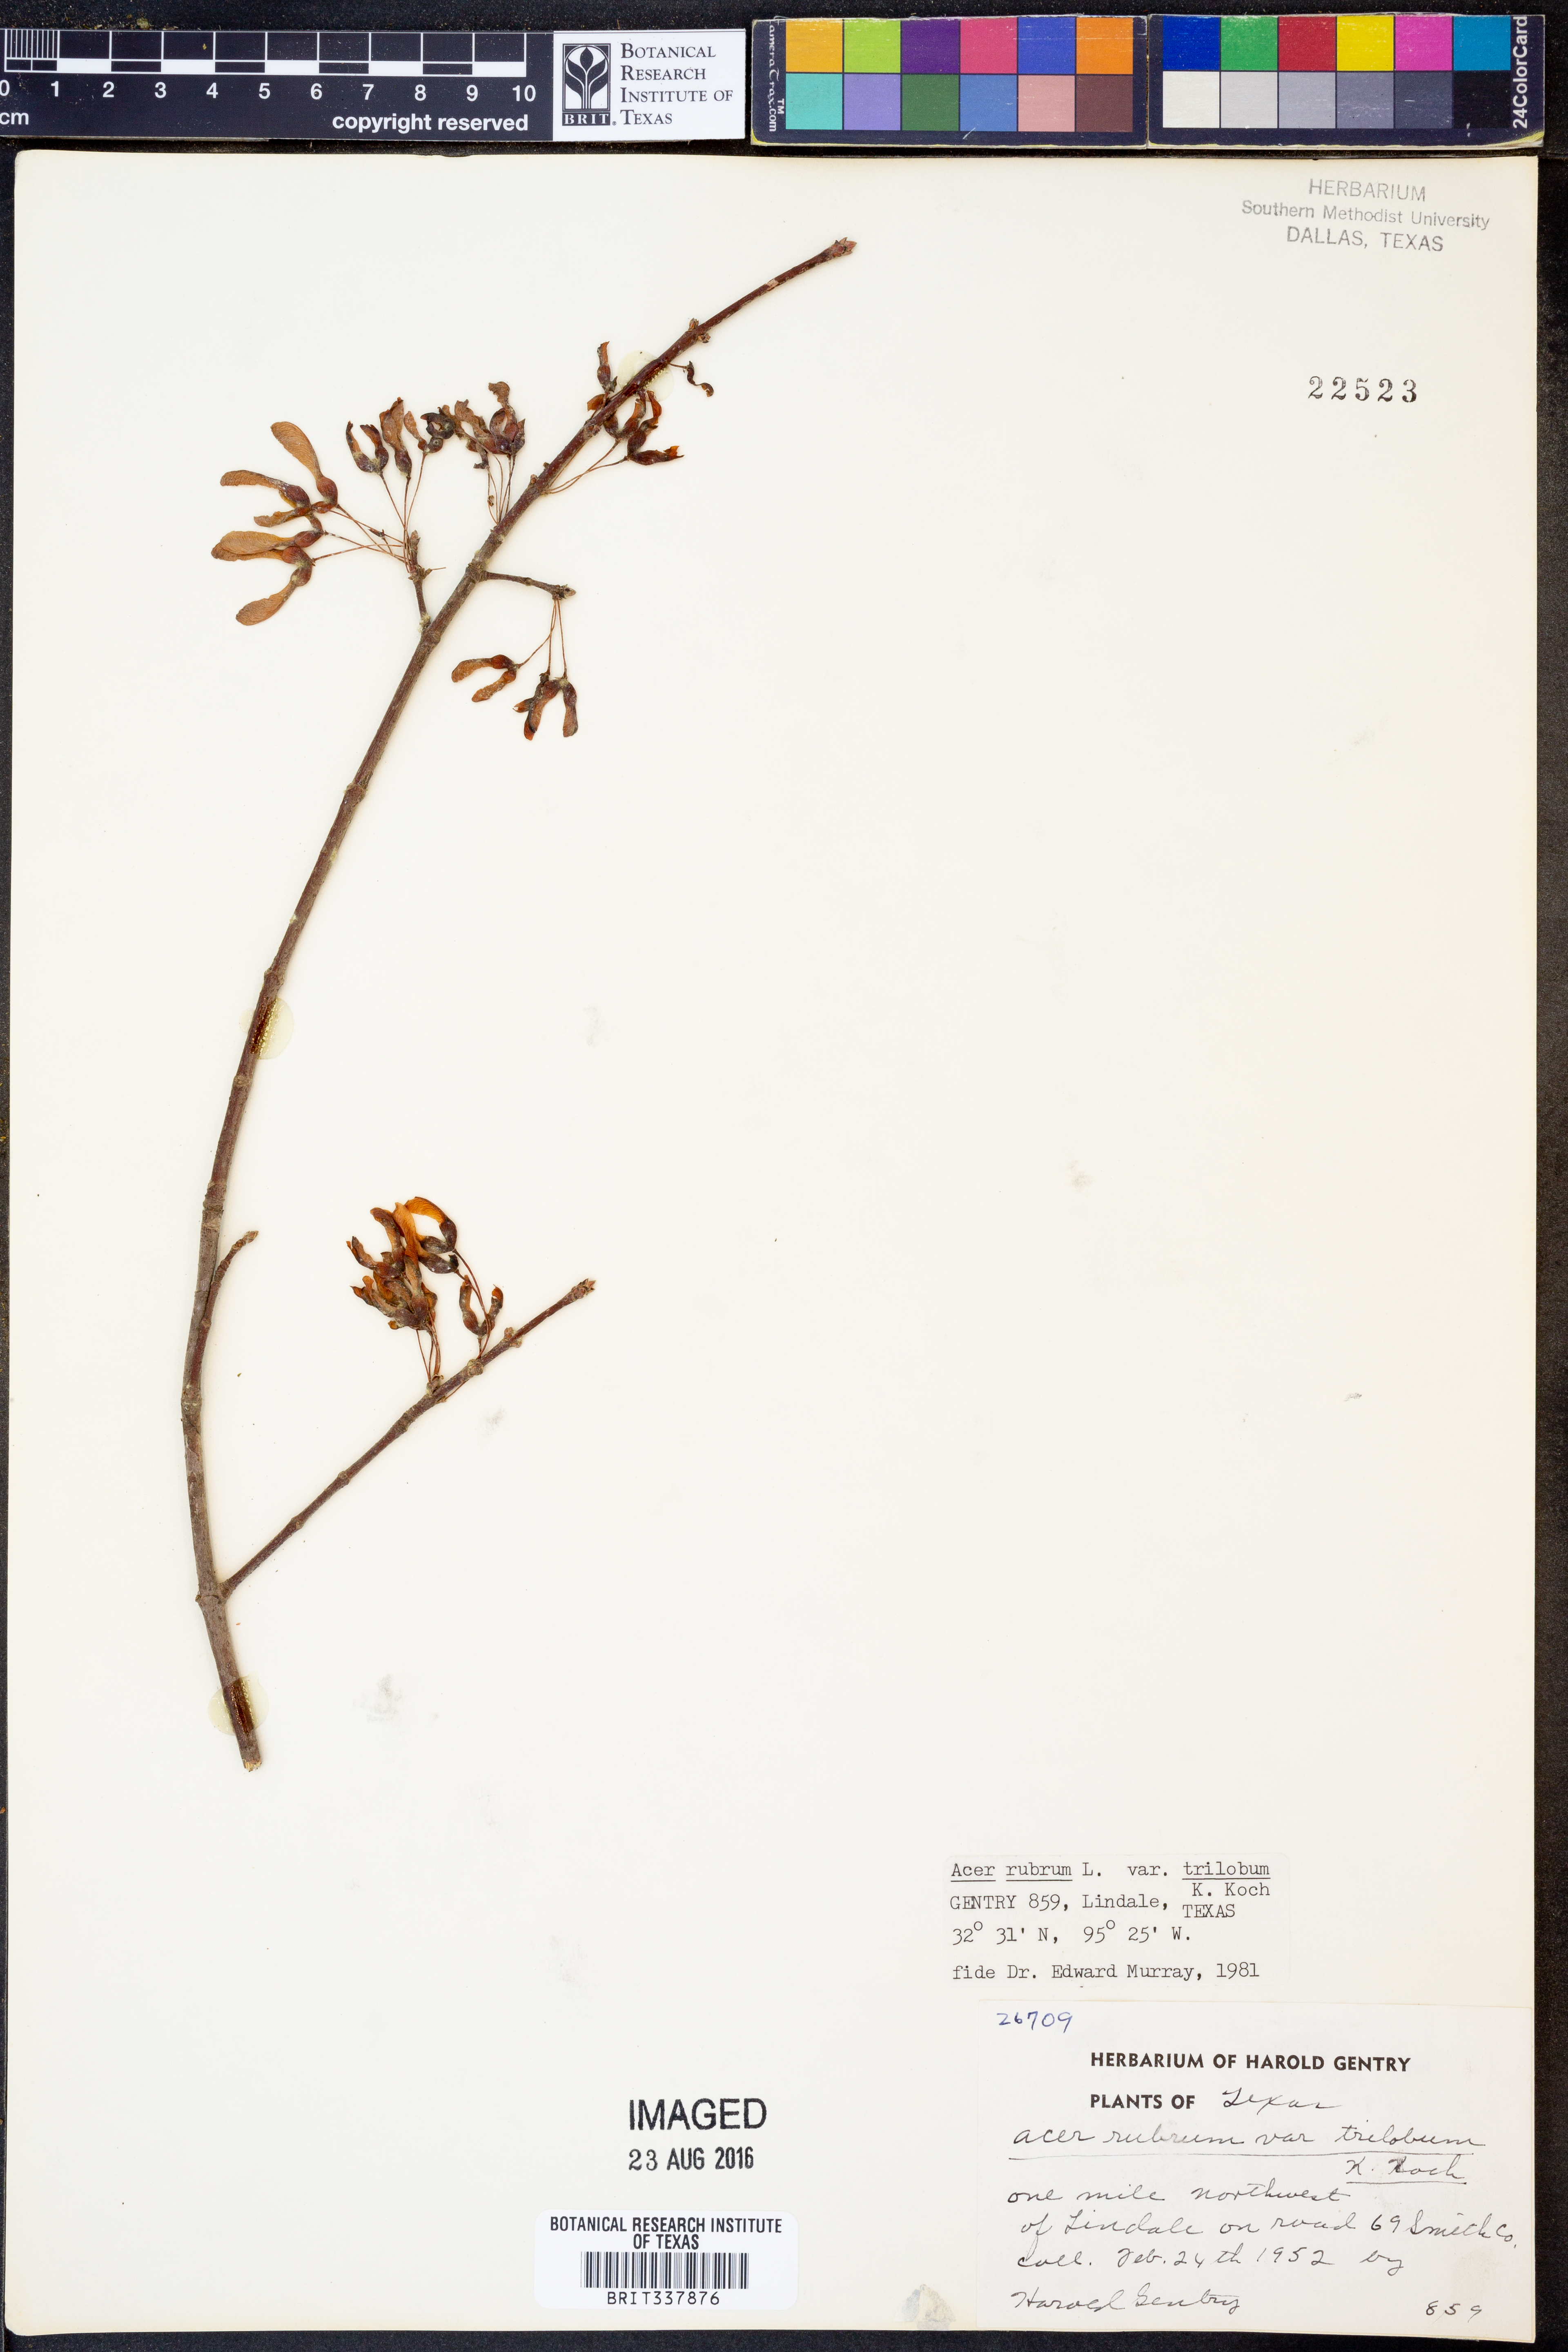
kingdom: Plantae
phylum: Tracheophyta
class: Magnoliopsida
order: Sapindales
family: Sapindaceae
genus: Acer
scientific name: Acer rubrum
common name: Red maple
